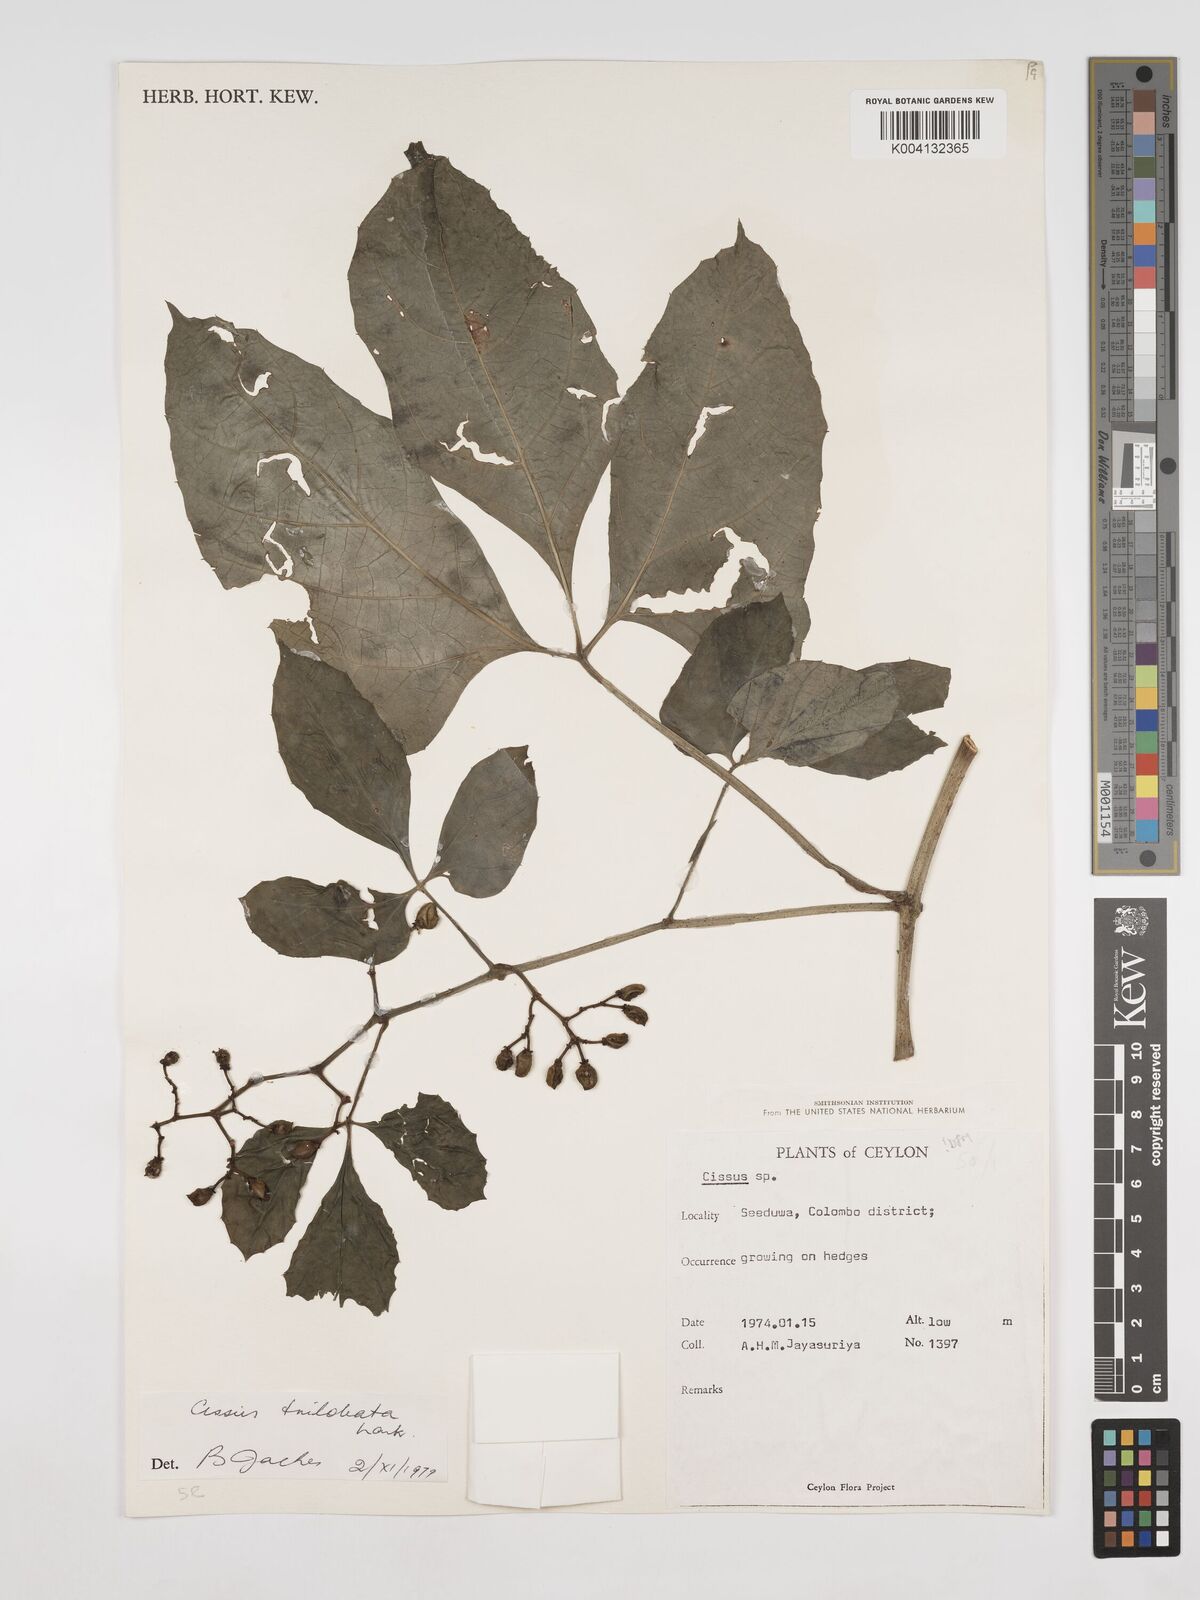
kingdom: Plantae
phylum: Tracheophyta
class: Magnoliopsida
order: Vitales
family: Vitaceae
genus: Cissus
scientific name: Cissus trilobata
